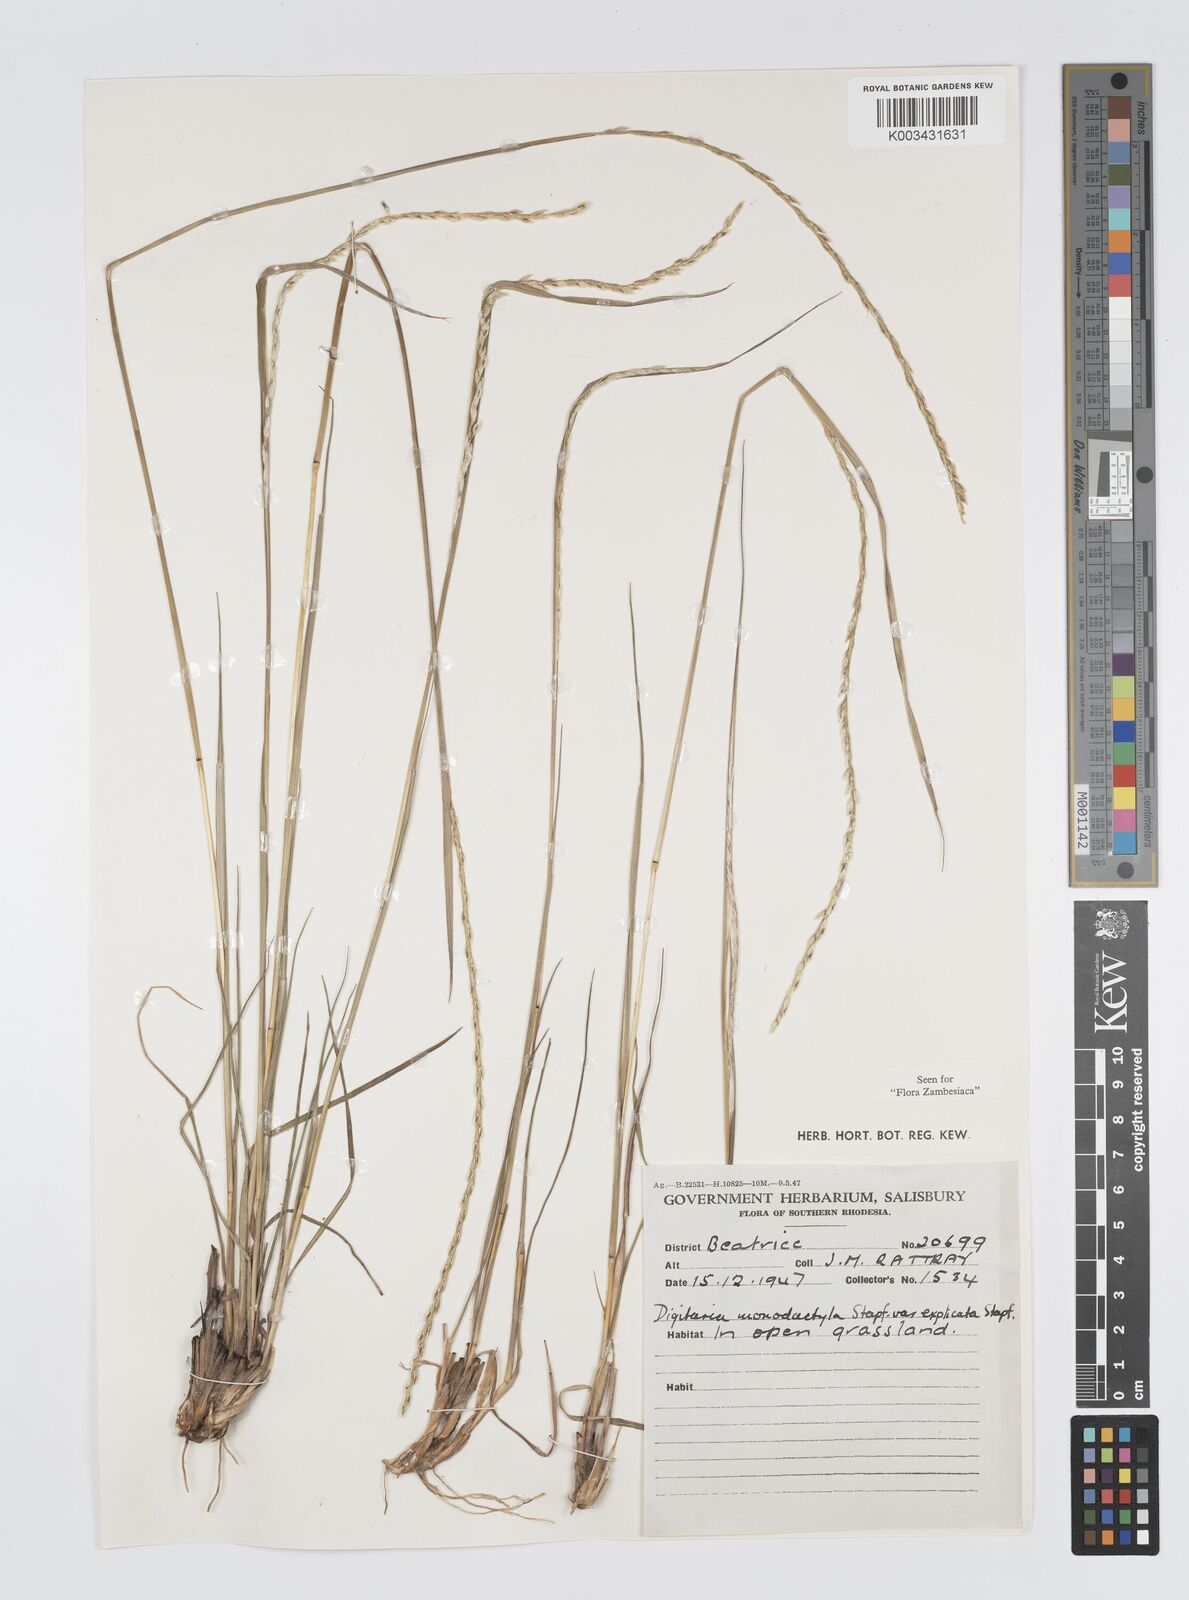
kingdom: Plantae
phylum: Tracheophyta
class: Liliopsida
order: Poales
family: Poaceae
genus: Digitaria
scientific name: Digitaria monodactyla
